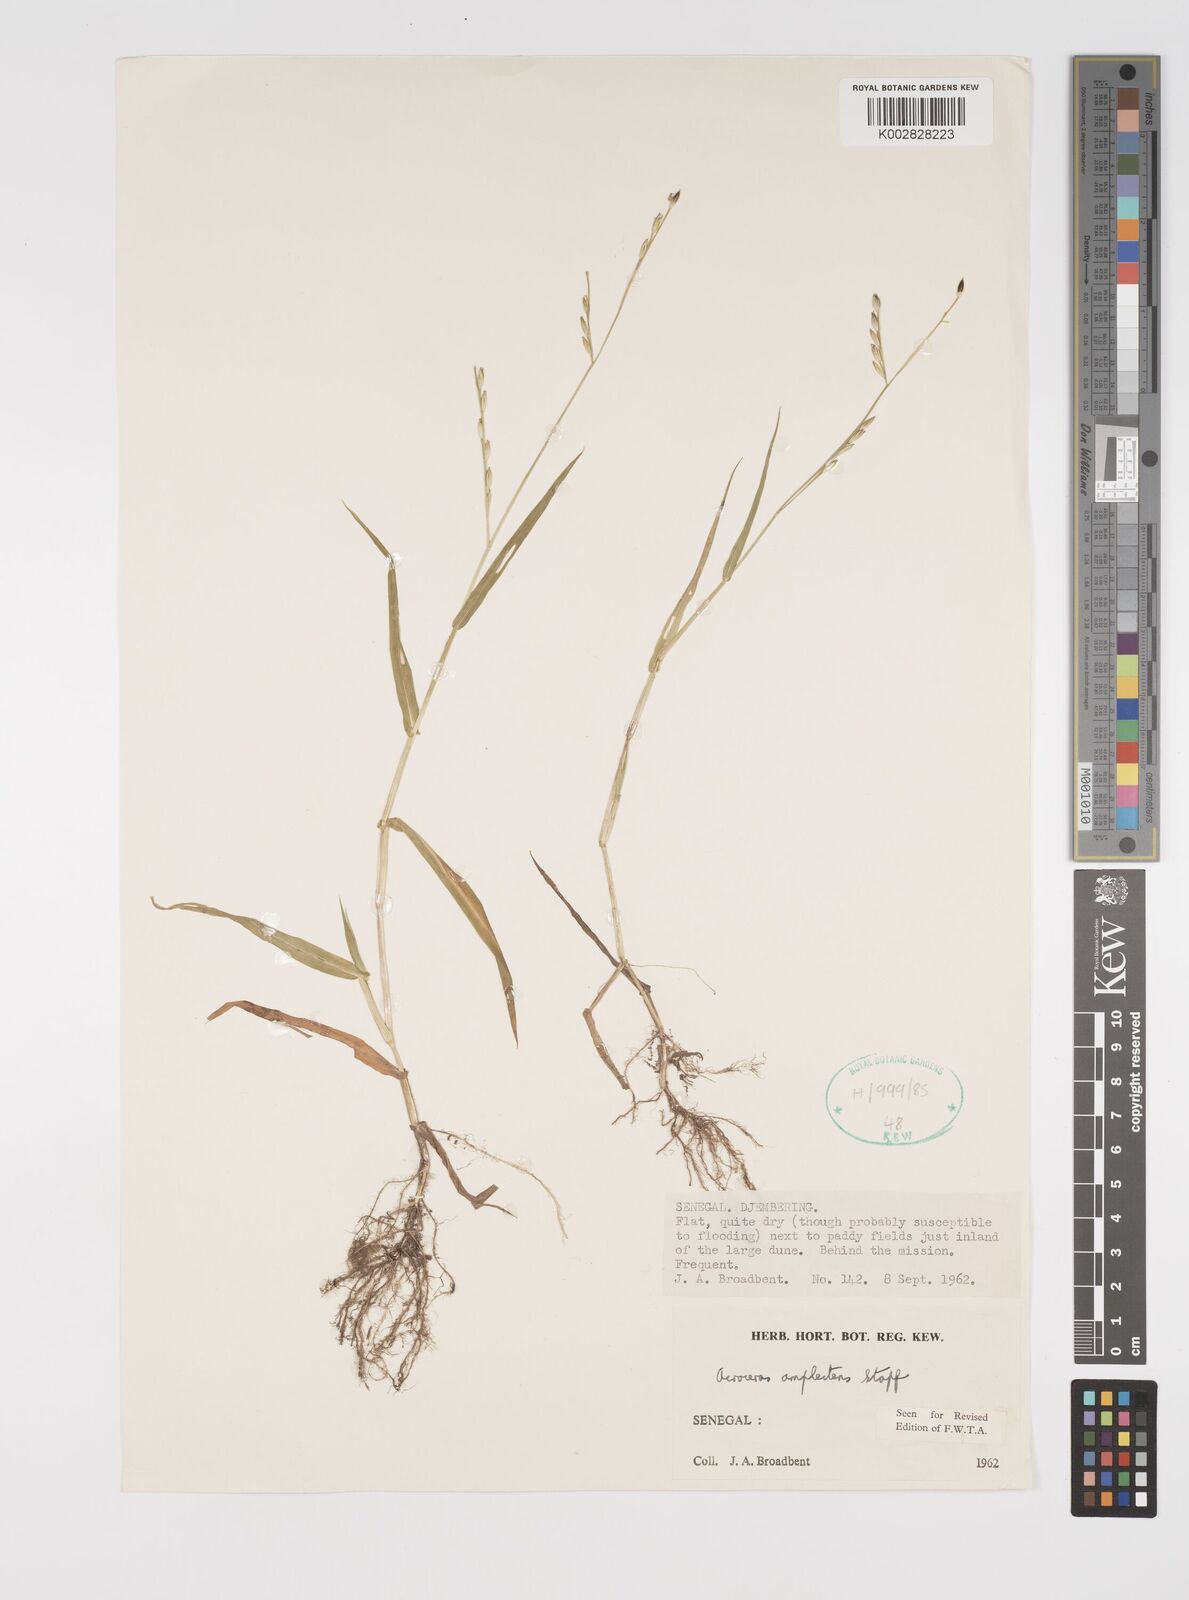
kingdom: Plantae
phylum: Tracheophyta
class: Liliopsida
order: Poales
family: Poaceae
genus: Acroceras
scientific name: Acroceras amplectens
